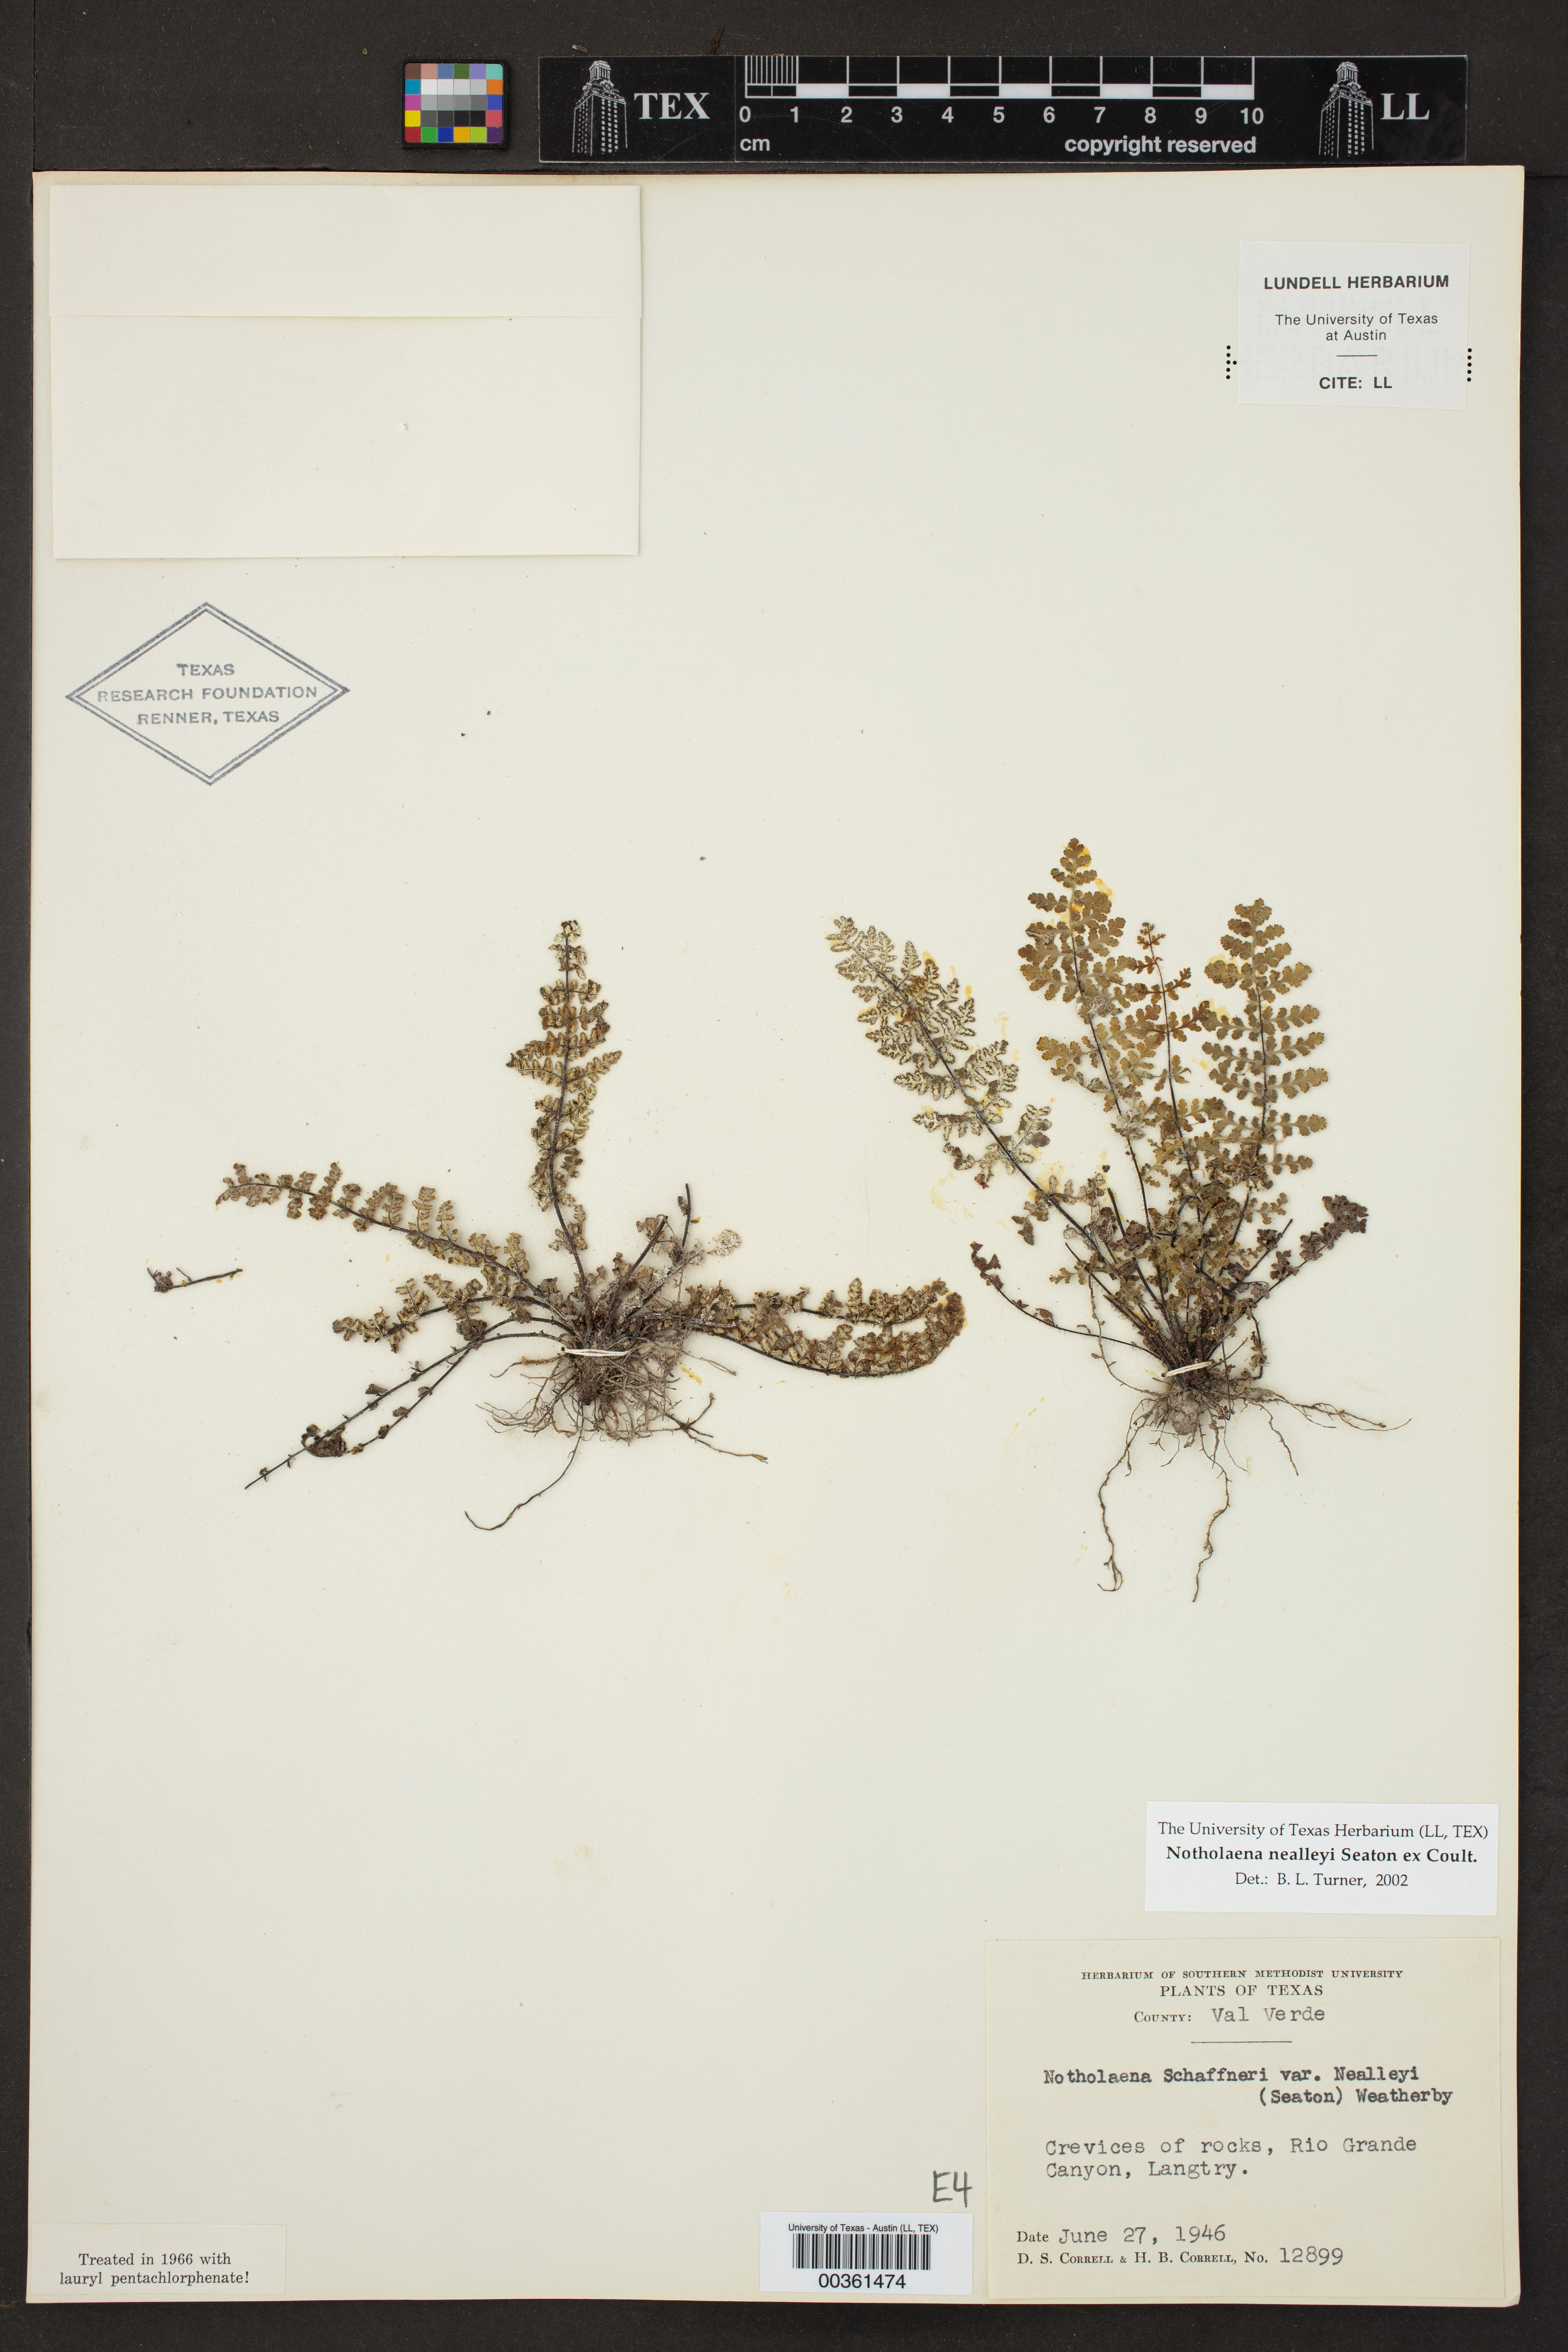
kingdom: Plantae
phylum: Tracheophyta
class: Polypodiopsida
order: Polypodiales
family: Pteridaceae
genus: Notholaena
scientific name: Notholaena schaffneri
